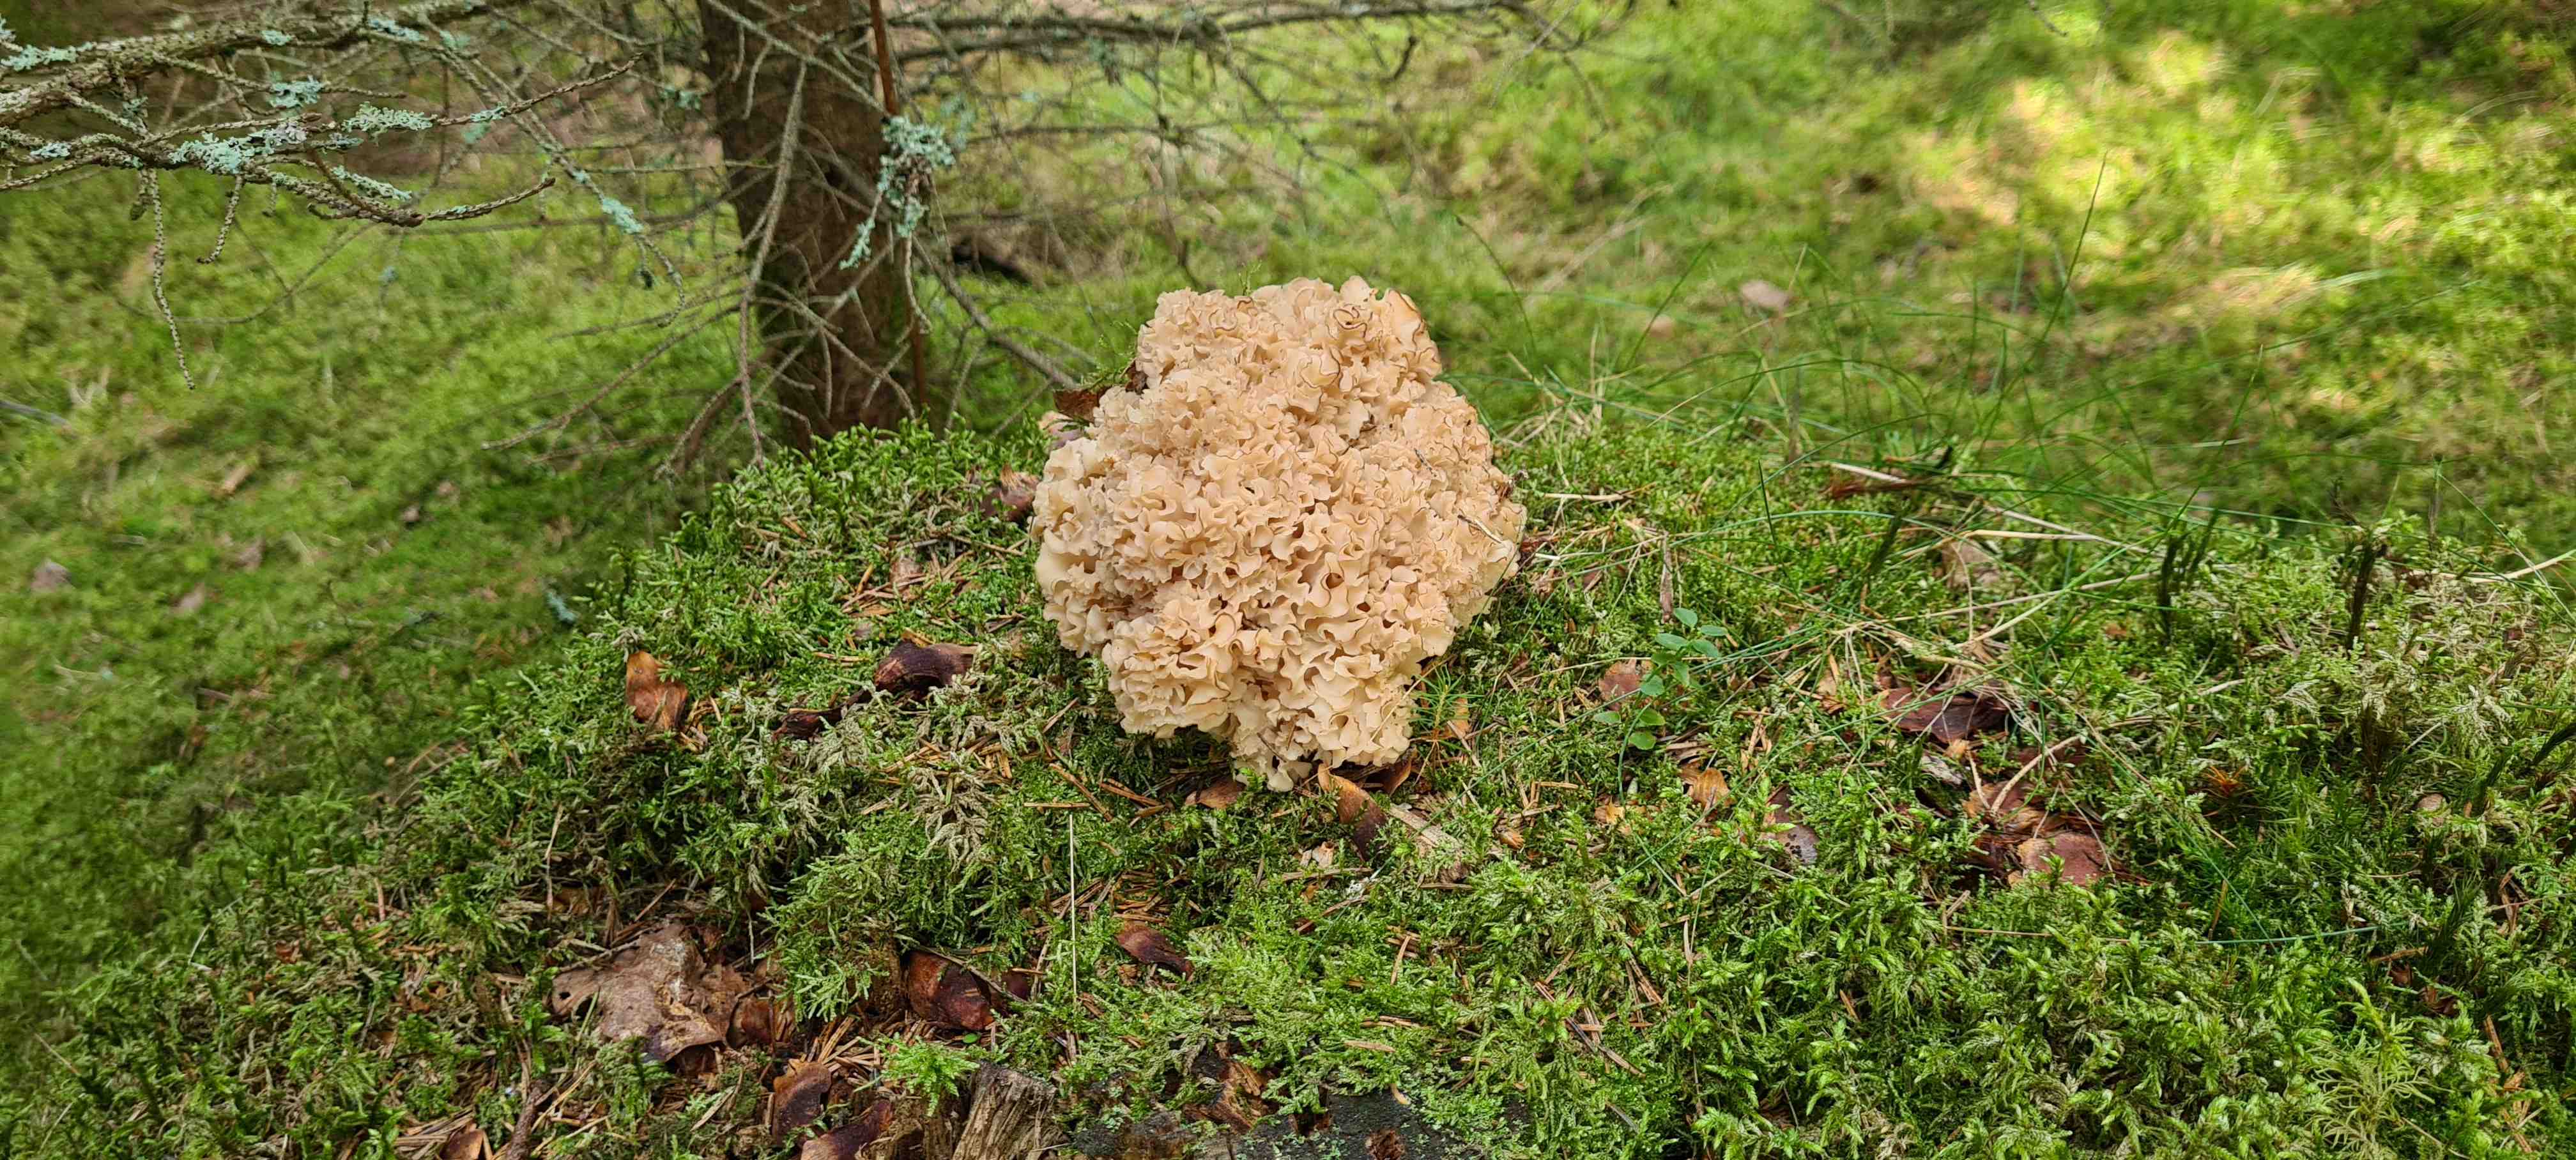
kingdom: Fungi
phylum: Basidiomycota
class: Agaricomycetes
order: Polyporales
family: Sparassidaceae
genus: Sparassis
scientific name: Sparassis crispa
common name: kruset blomkålssvamp
